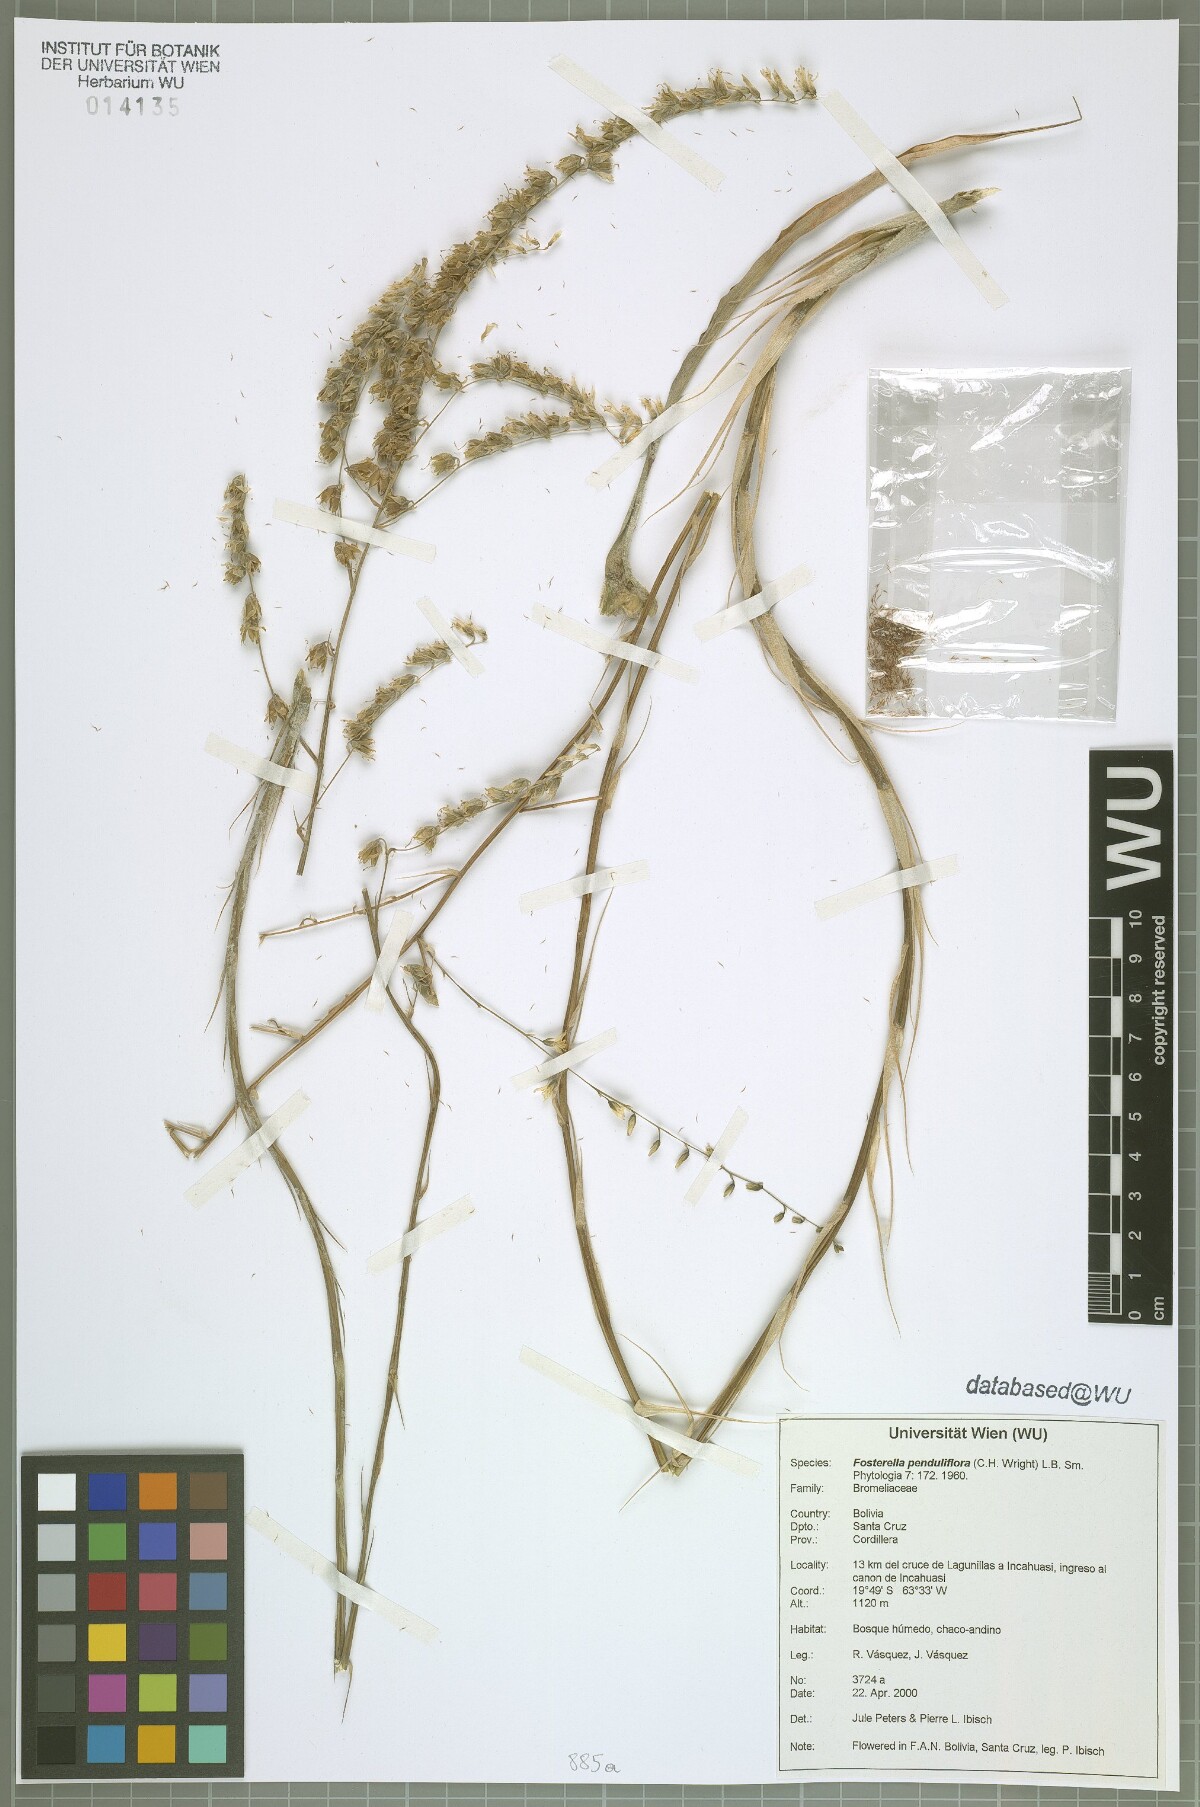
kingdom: Plantae
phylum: Tracheophyta
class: Liliopsida
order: Poales
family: Bromeliaceae
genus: Fosterella
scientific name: Fosterella penduliflora
